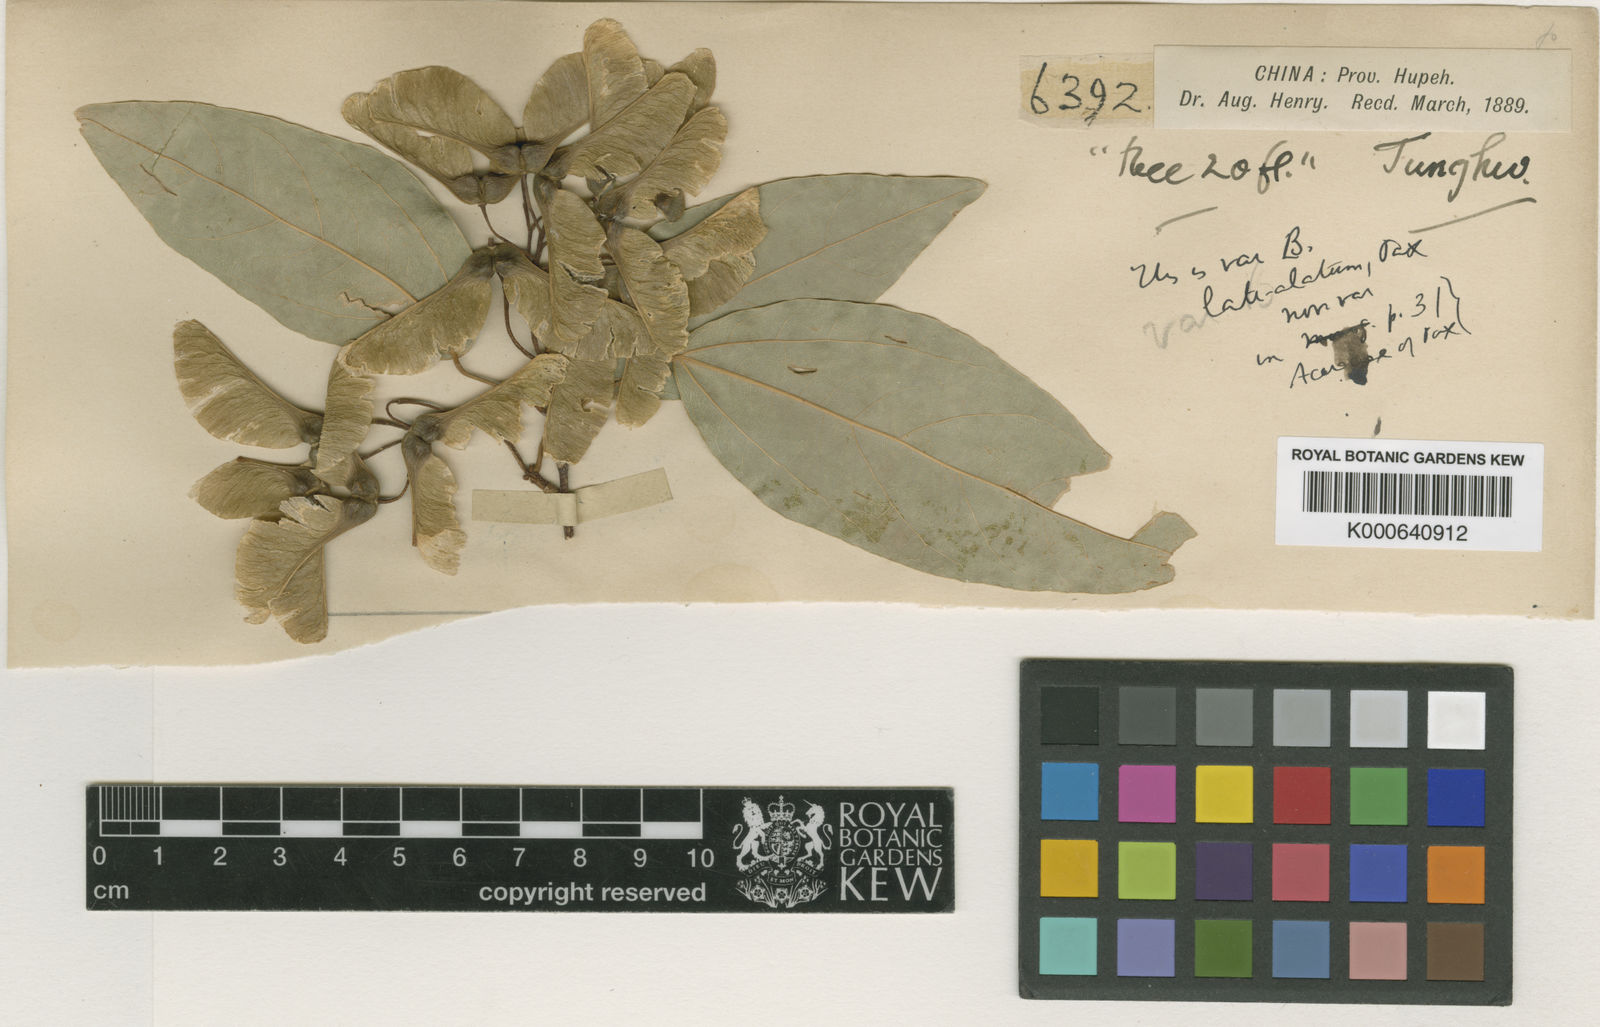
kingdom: Plantae
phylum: Tracheophyta
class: Magnoliopsida
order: Sapindales
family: Sapindaceae
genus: Acer
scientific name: Acer oblongum
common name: Himalayan maple
